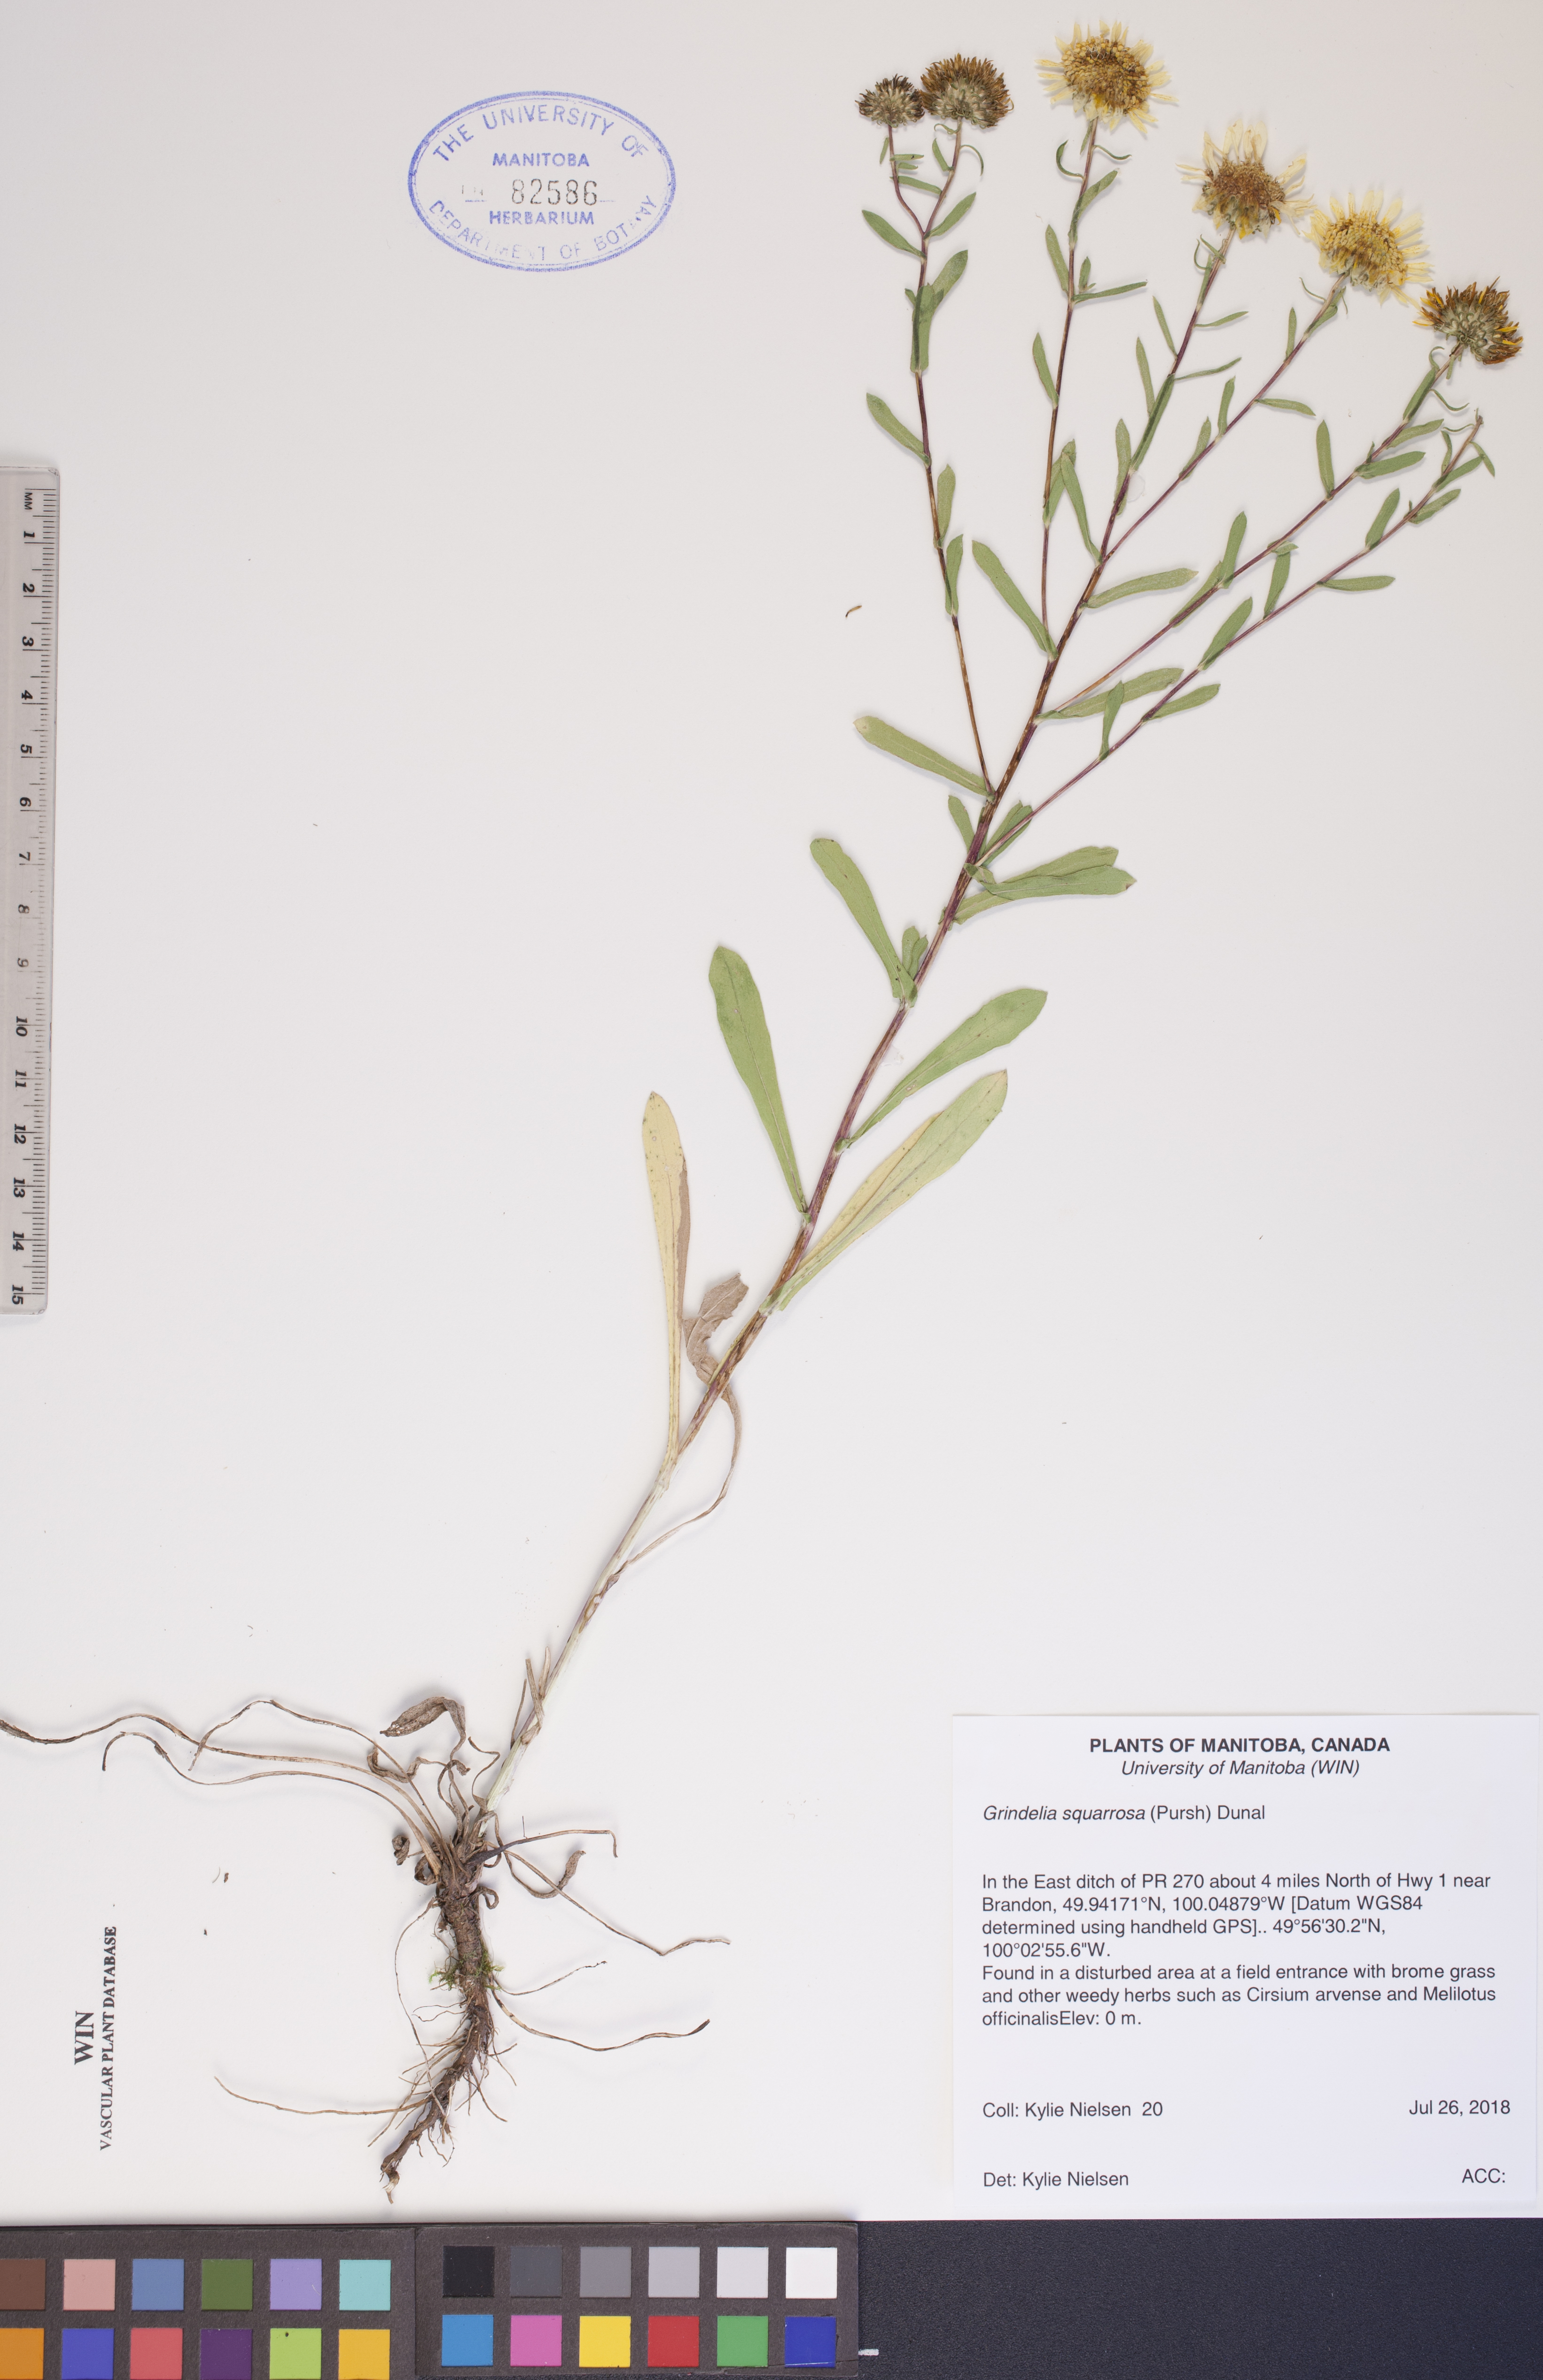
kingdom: Plantae
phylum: Tracheophyta
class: Magnoliopsida
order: Asterales
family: Asteraceae
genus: Grindelia
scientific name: Grindelia squarrosa
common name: Curly-cup gumweed
